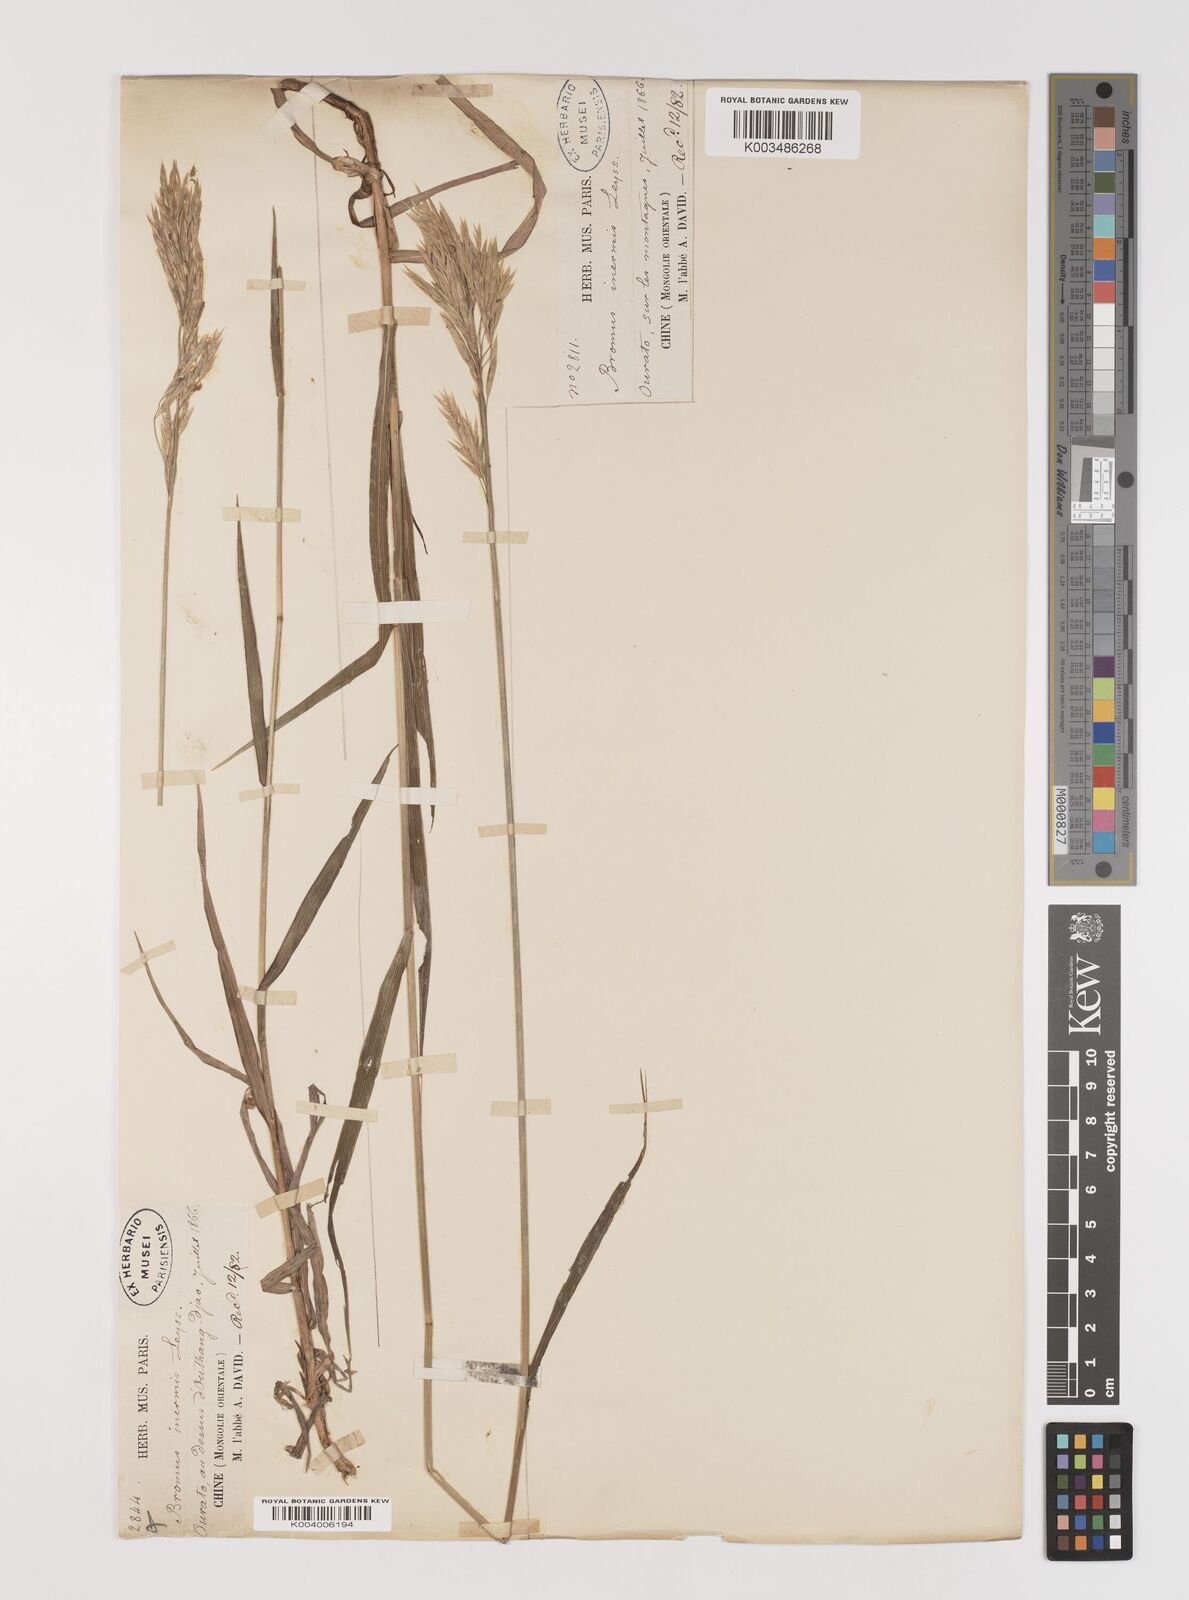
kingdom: Plantae
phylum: Tracheophyta
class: Liliopsida
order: Poales
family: Poaceae
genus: Bromus
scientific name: Bromus inermis
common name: Smooth brome
